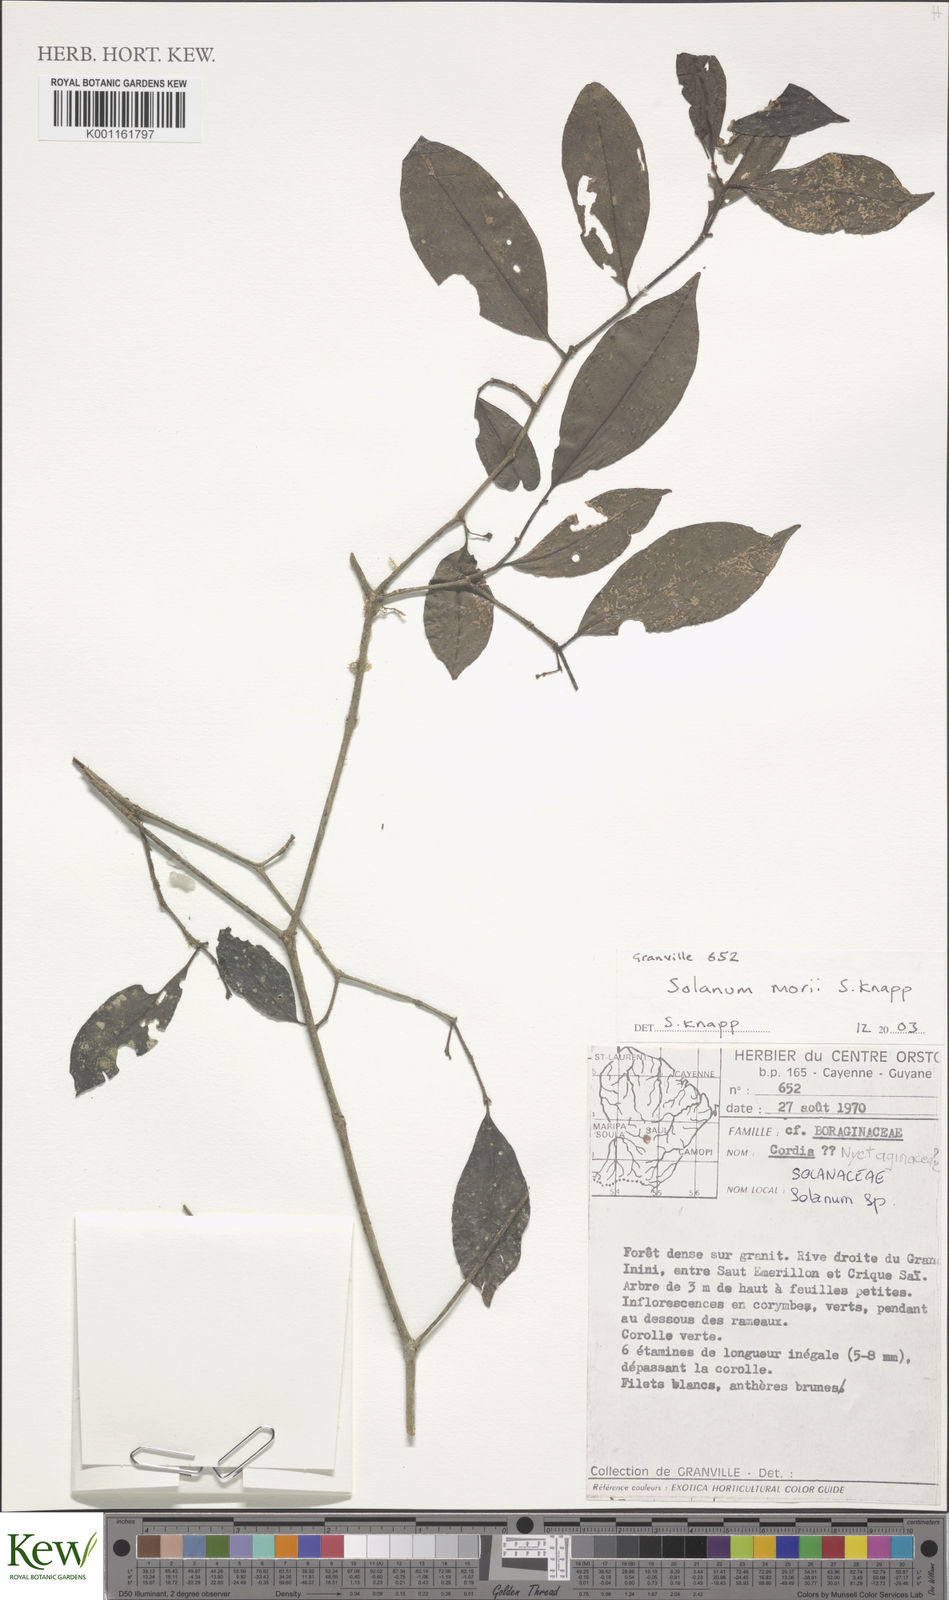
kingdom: Plantae
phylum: Tracheophyta
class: Magnoliopsida
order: Solanales
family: Solanaceae
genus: Solanum
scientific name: Solanum morii
